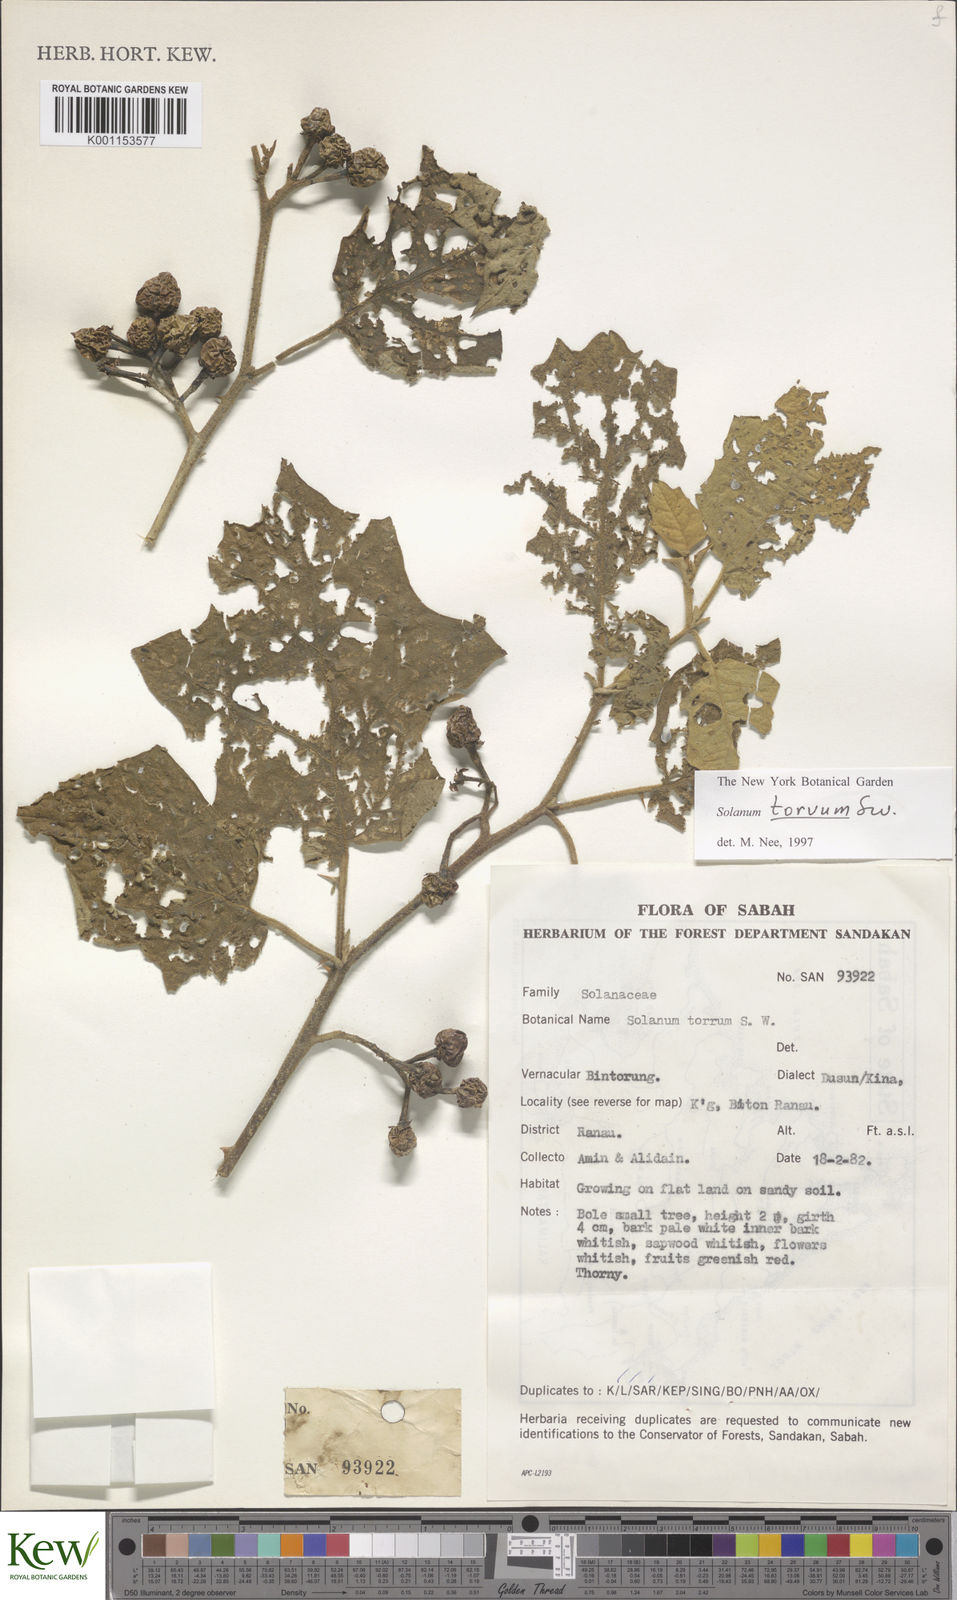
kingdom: Plantae
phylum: Tracheophyta
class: Magnoliopsida
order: Solanales
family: Solanaceae
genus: Solanum
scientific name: Solanum torvum
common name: Turkey berry
